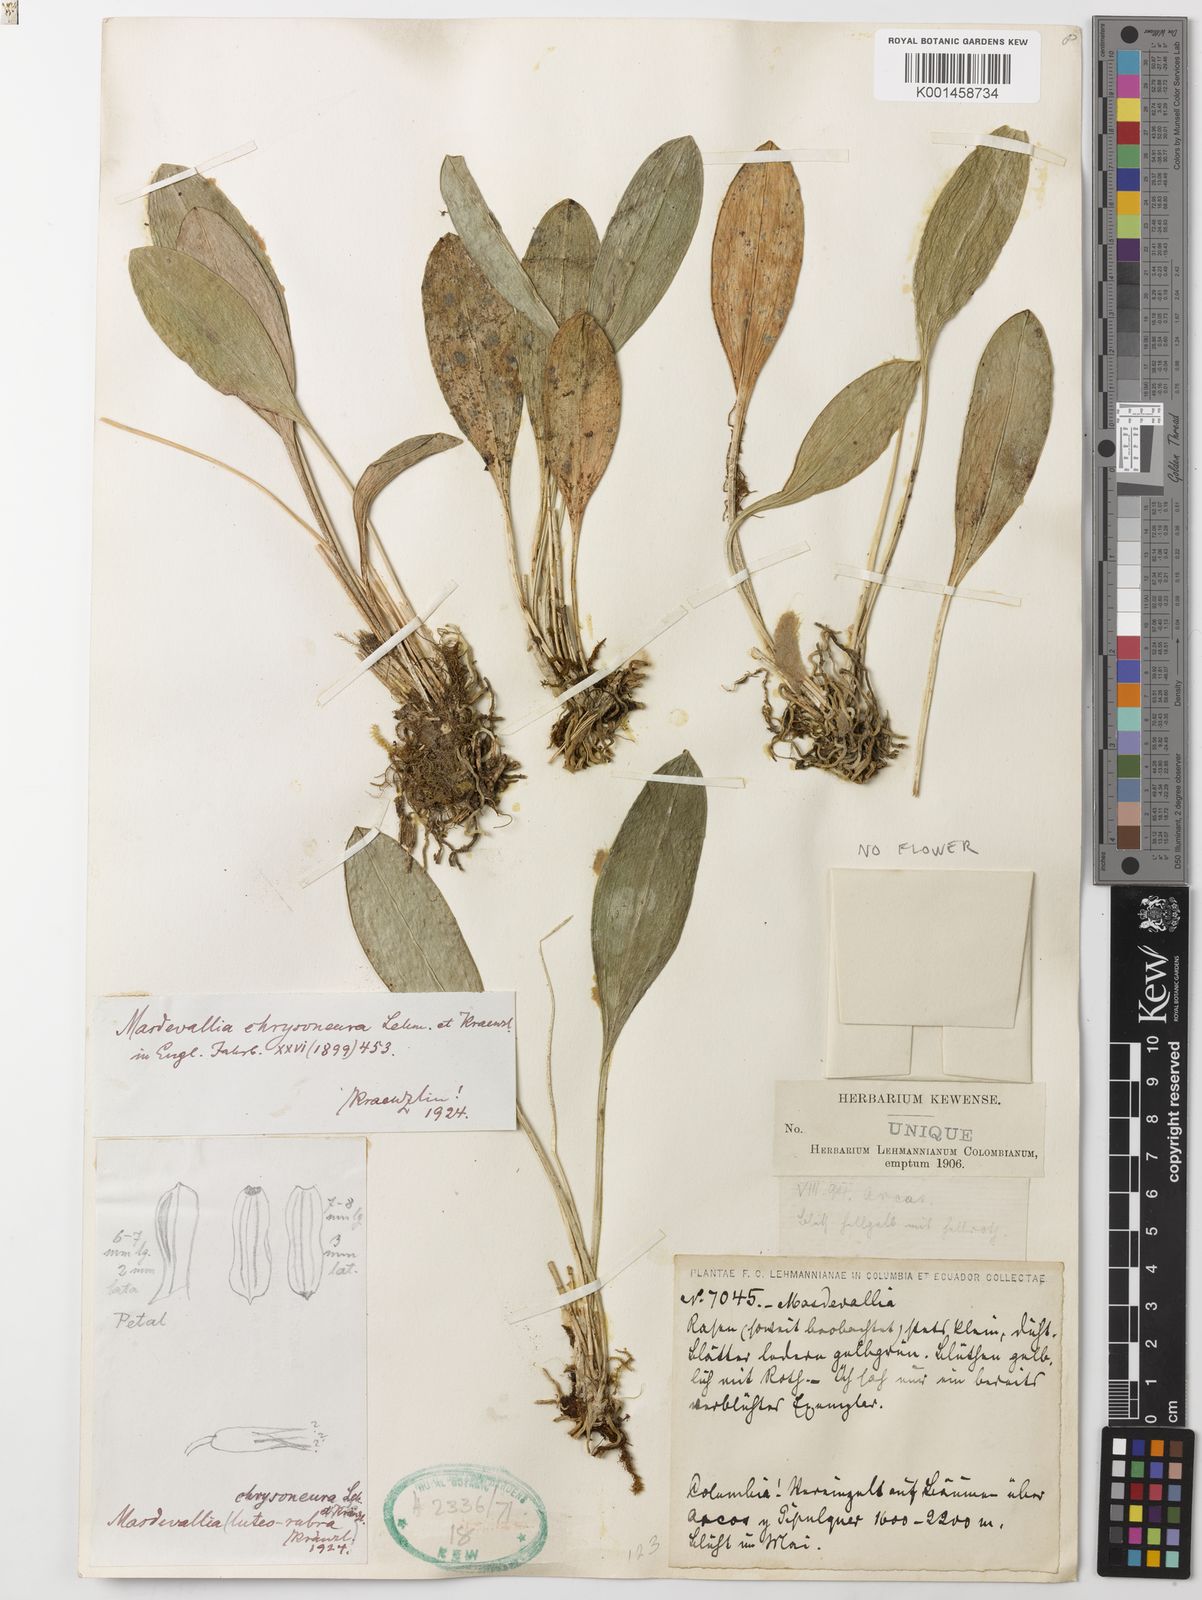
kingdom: Plantae
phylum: Tracheophyta
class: Liliopsida
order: Asparagales
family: Orchidaceae
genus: Masdevallia
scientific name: Masdevallia laevis
